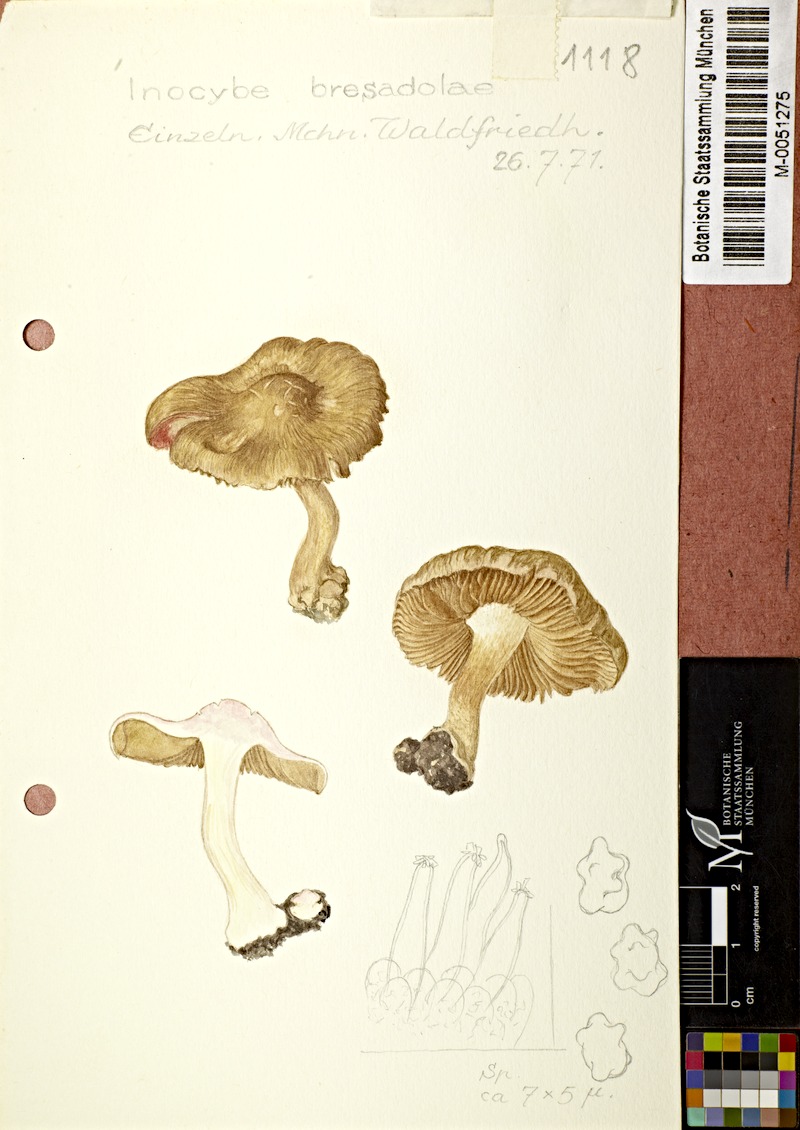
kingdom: Fungi
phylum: Basidiomycota
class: Agaricomycetes
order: Agaricales
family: Inocybaceae
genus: Inocybe
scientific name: Inocybe bresadolae
